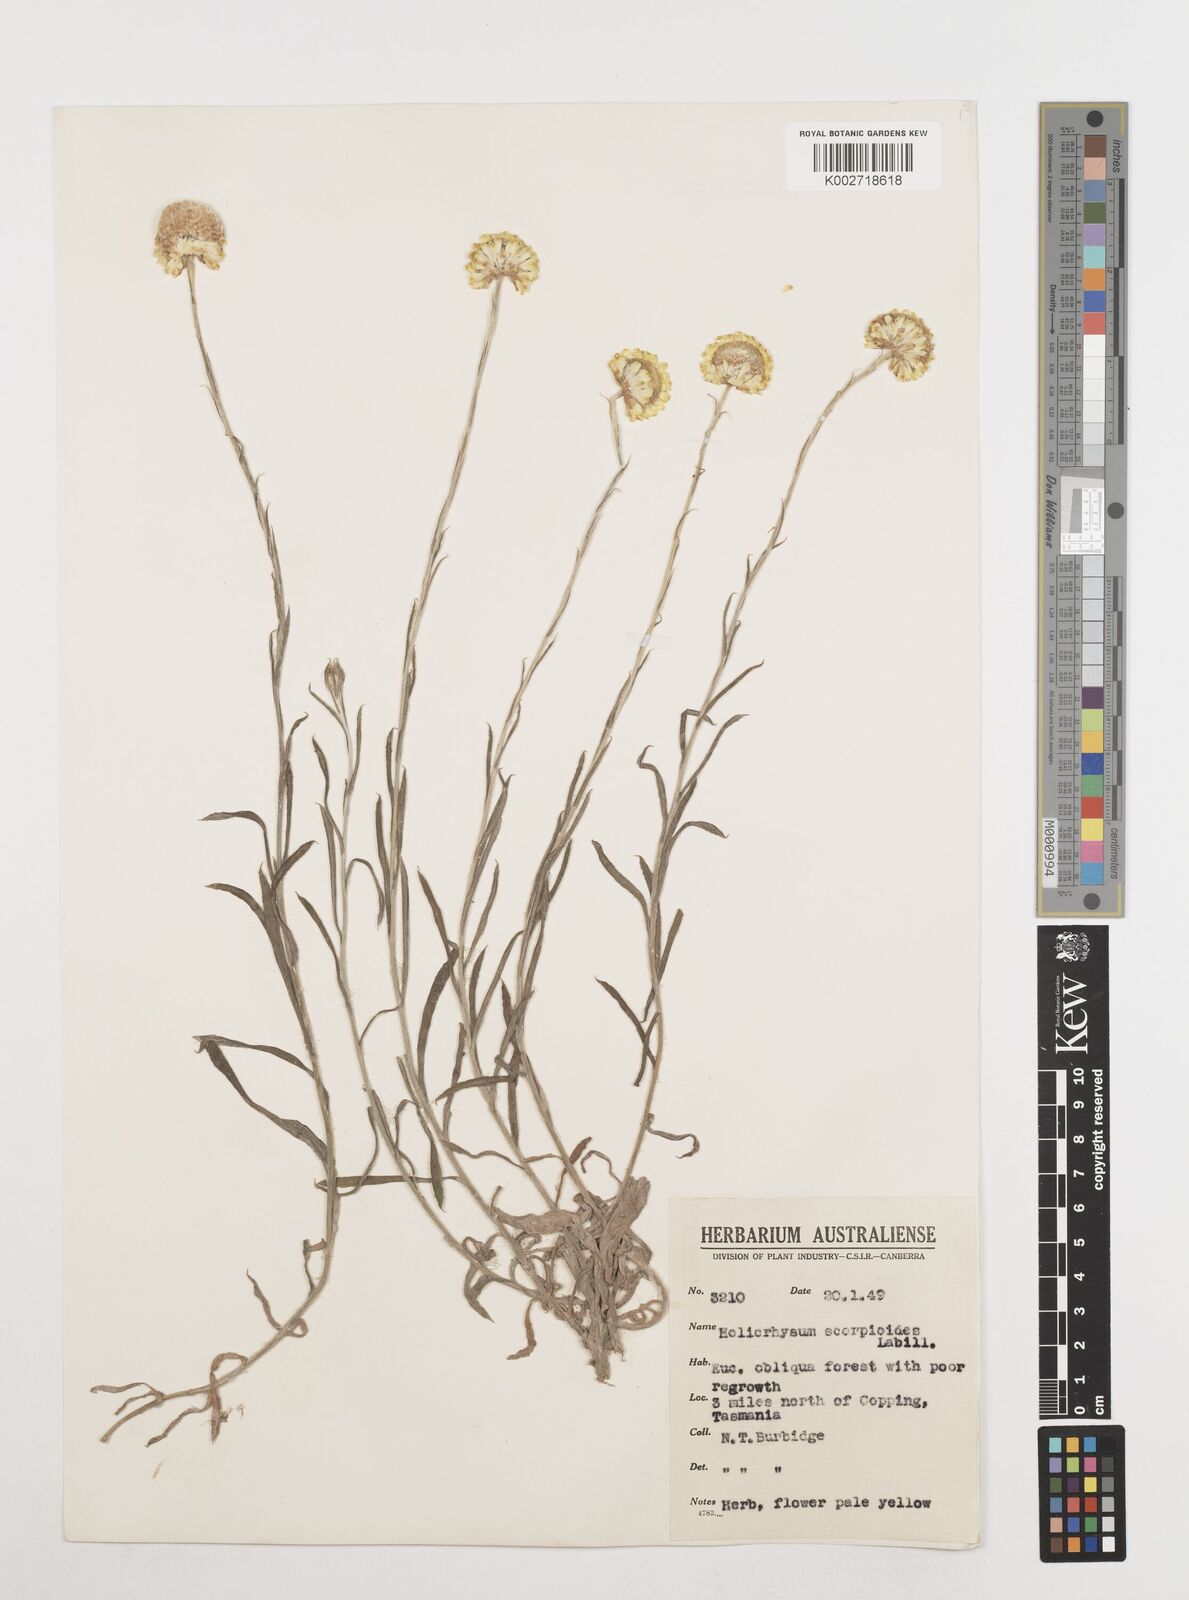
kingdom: Plantae
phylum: Tracheophyta
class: Magnoliopsida
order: Asterales
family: Asteraceae
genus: Coronidium
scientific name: Coronidium scorpioides
